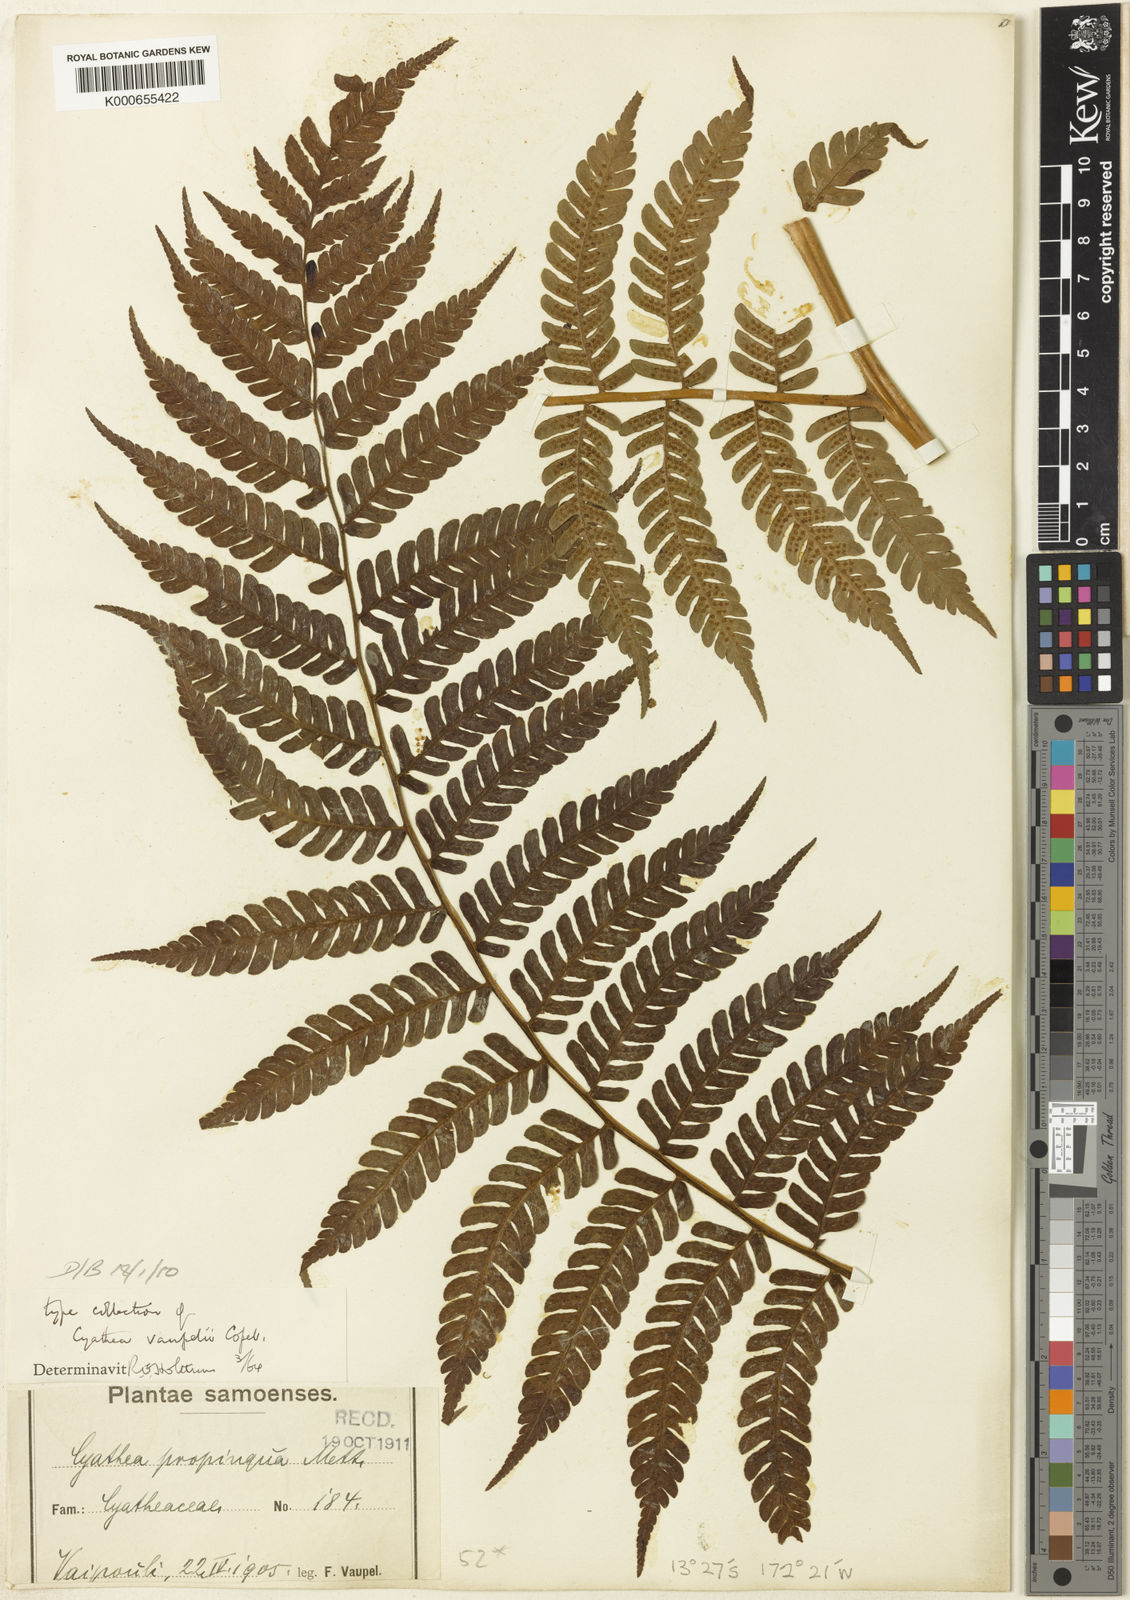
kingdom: Plantae
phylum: Tracheophyta
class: Polypodiopsida
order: Cyatheales
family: Cyatheaceae
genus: Sphaeropteris
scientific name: Sphaeropteris vaupelii
